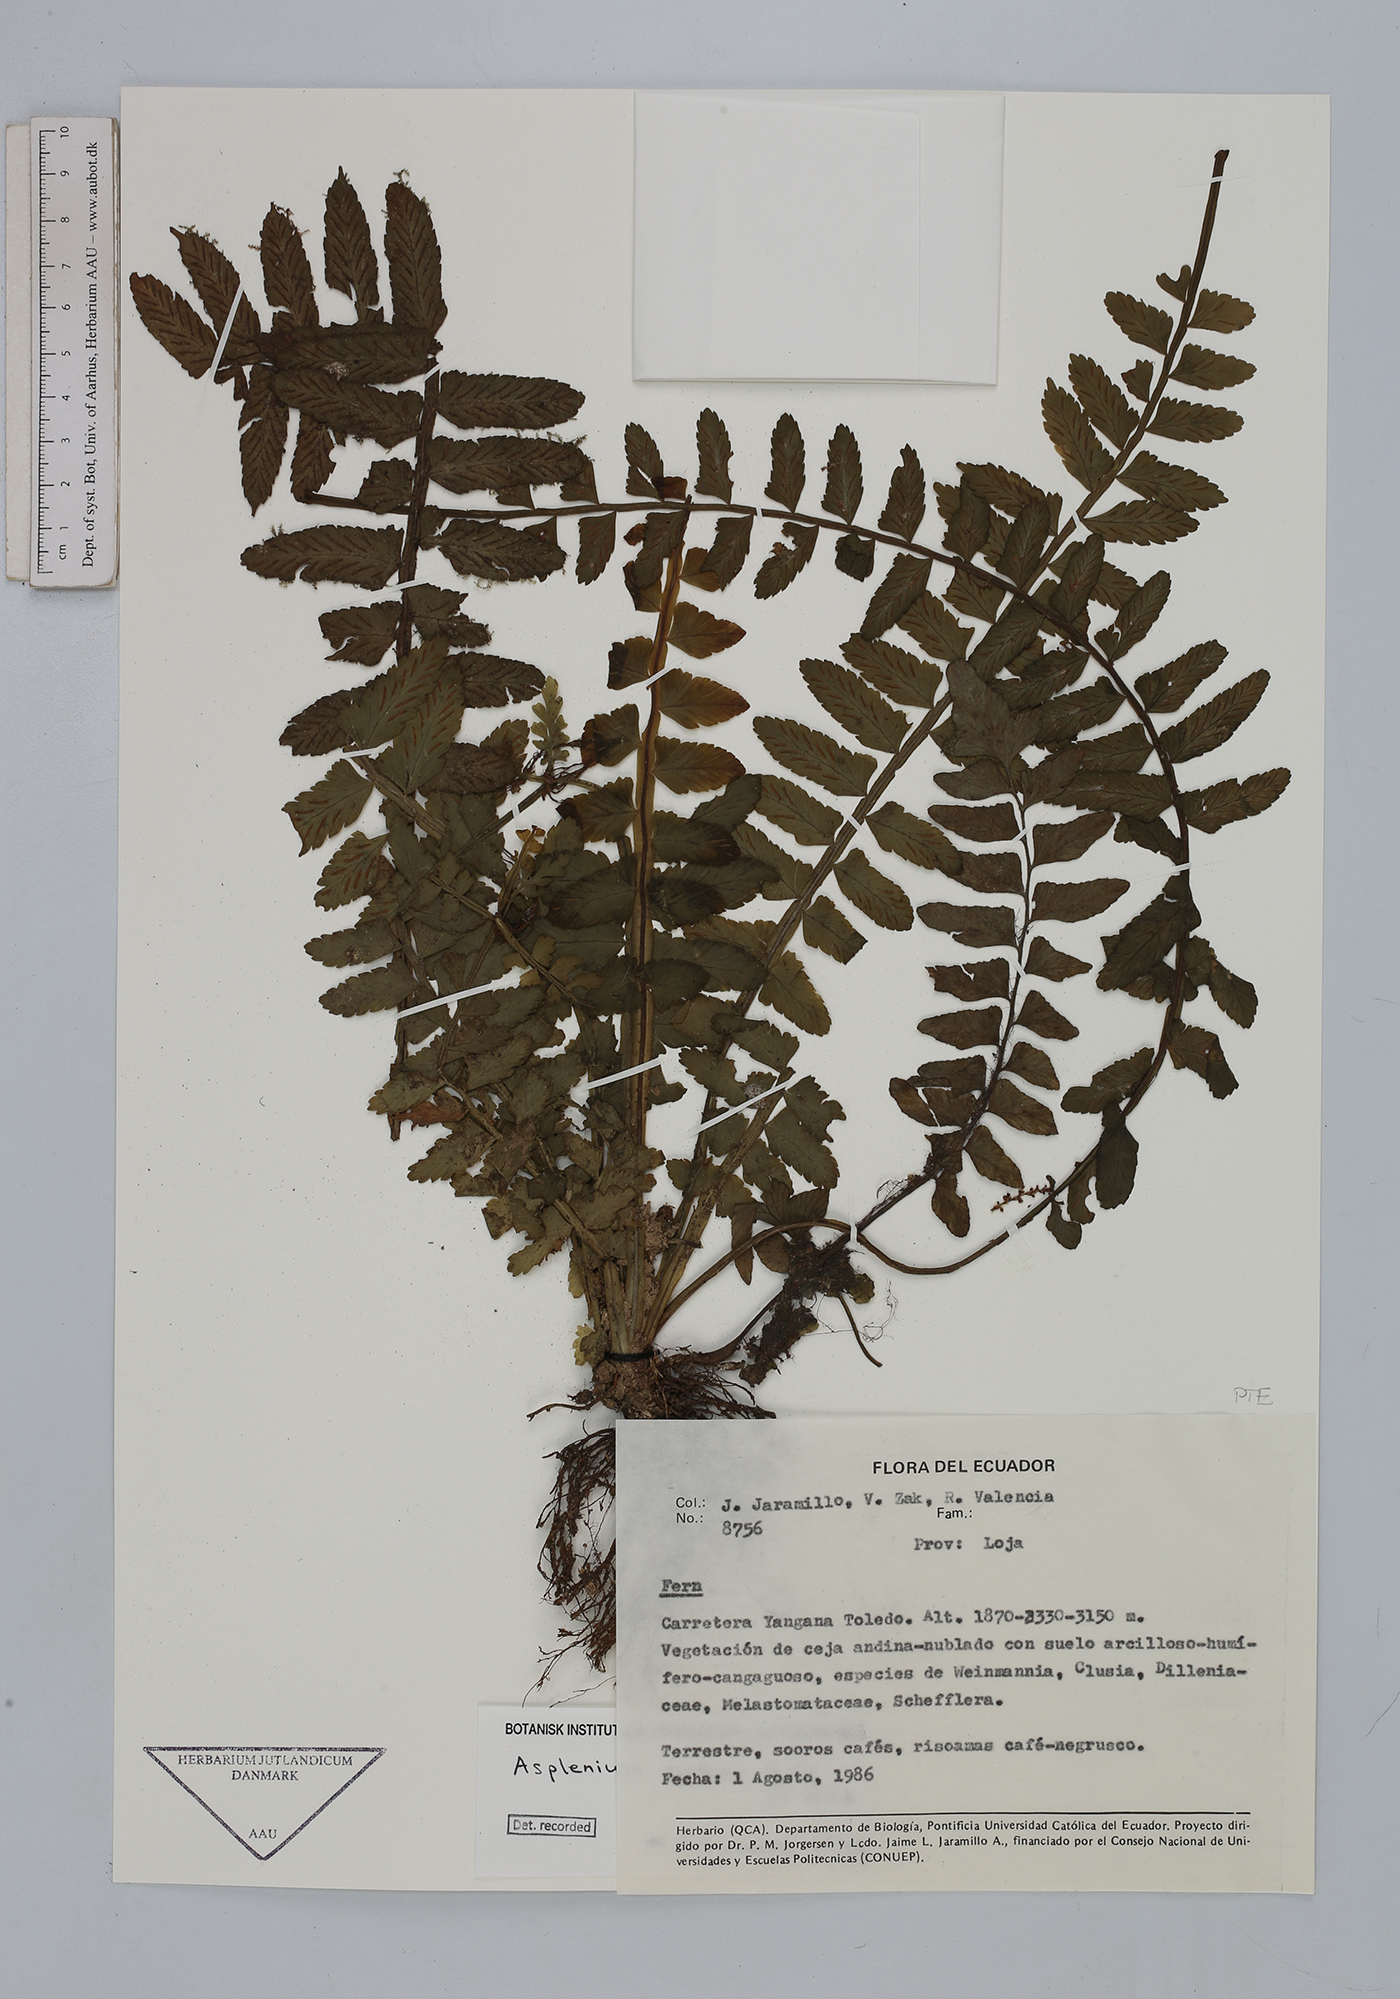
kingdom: Plantae
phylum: Tracheophyta
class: Polypodiopsida
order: Polypodiales
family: Aspleniaceae
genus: Asplenium
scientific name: Asplenium alatum
